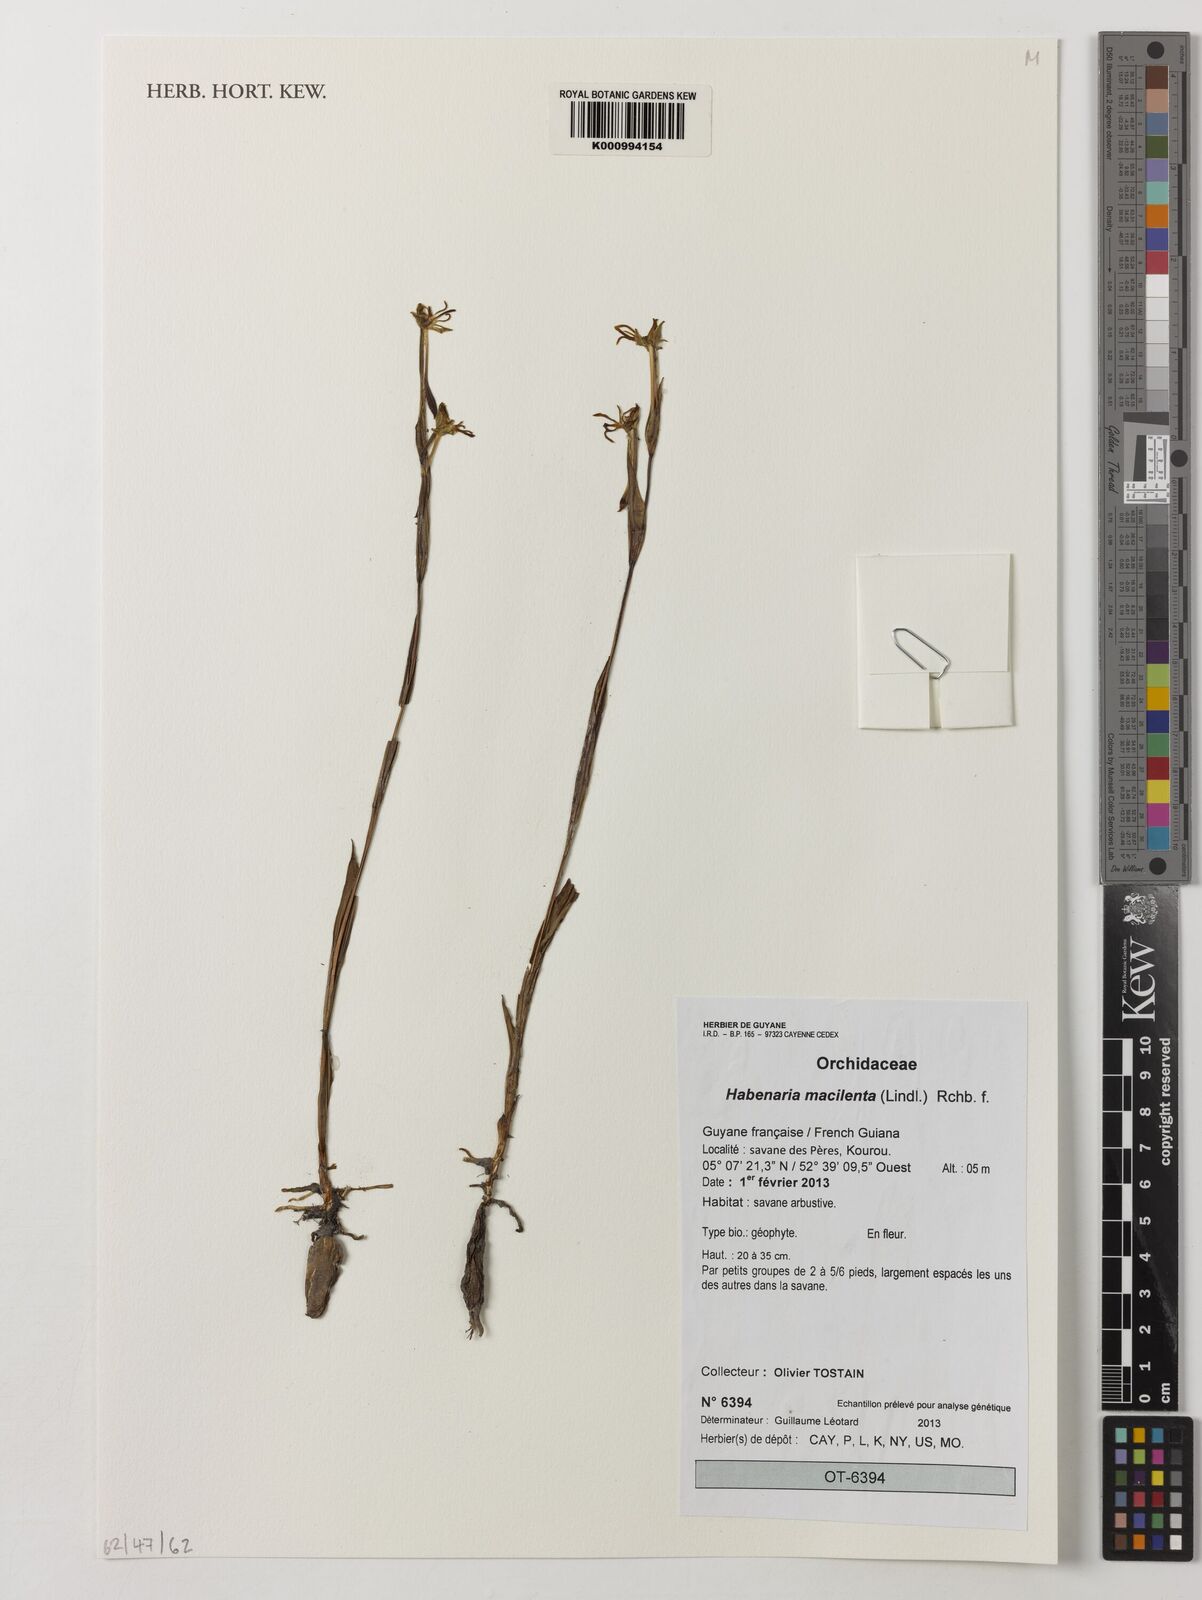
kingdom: Plantae
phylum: Tracheophyta
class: Liliopsida
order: Asparagales
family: Orchidaceae
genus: Habenaria
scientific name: Habenaria macilenta
